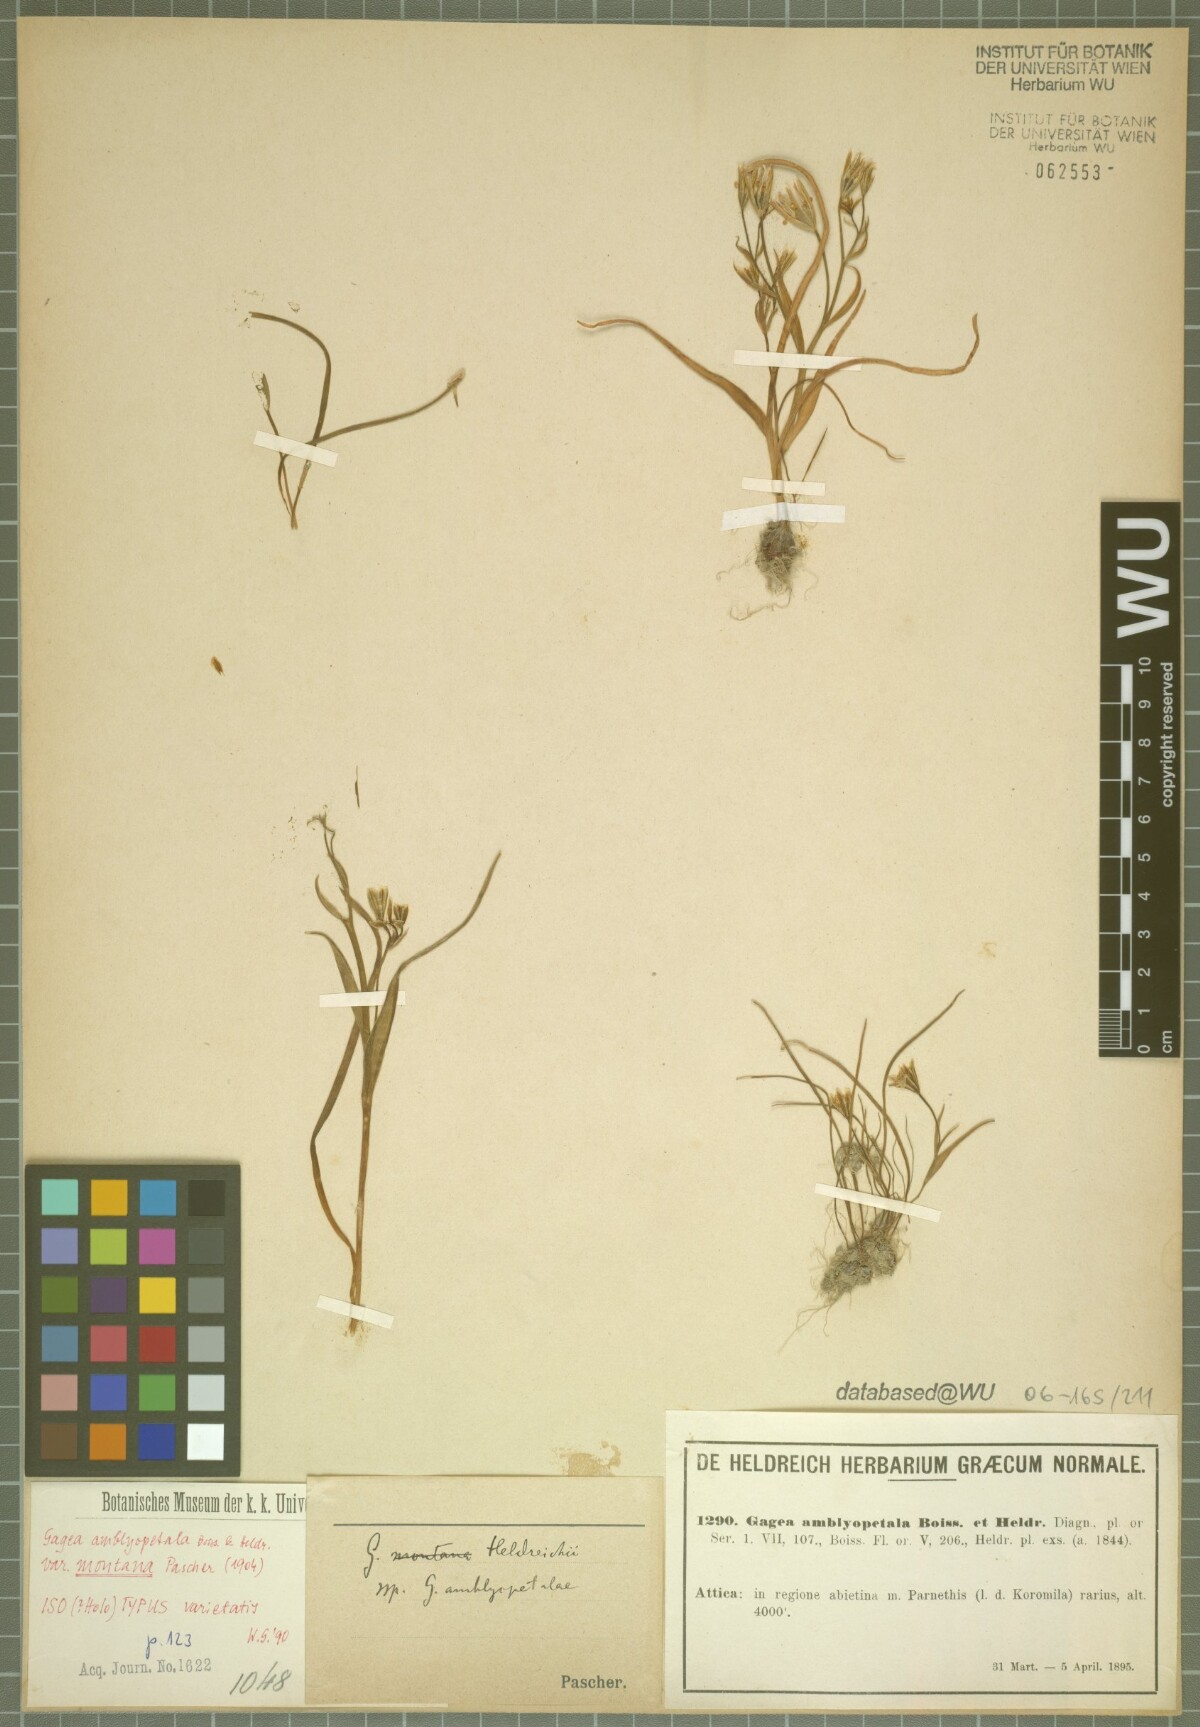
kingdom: Plantae
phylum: Tracheophyta
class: Liliopsida
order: Liliales
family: Liliaceae
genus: Gagea
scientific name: Gagea amblyopetala
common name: Blunt-flowered gagea
